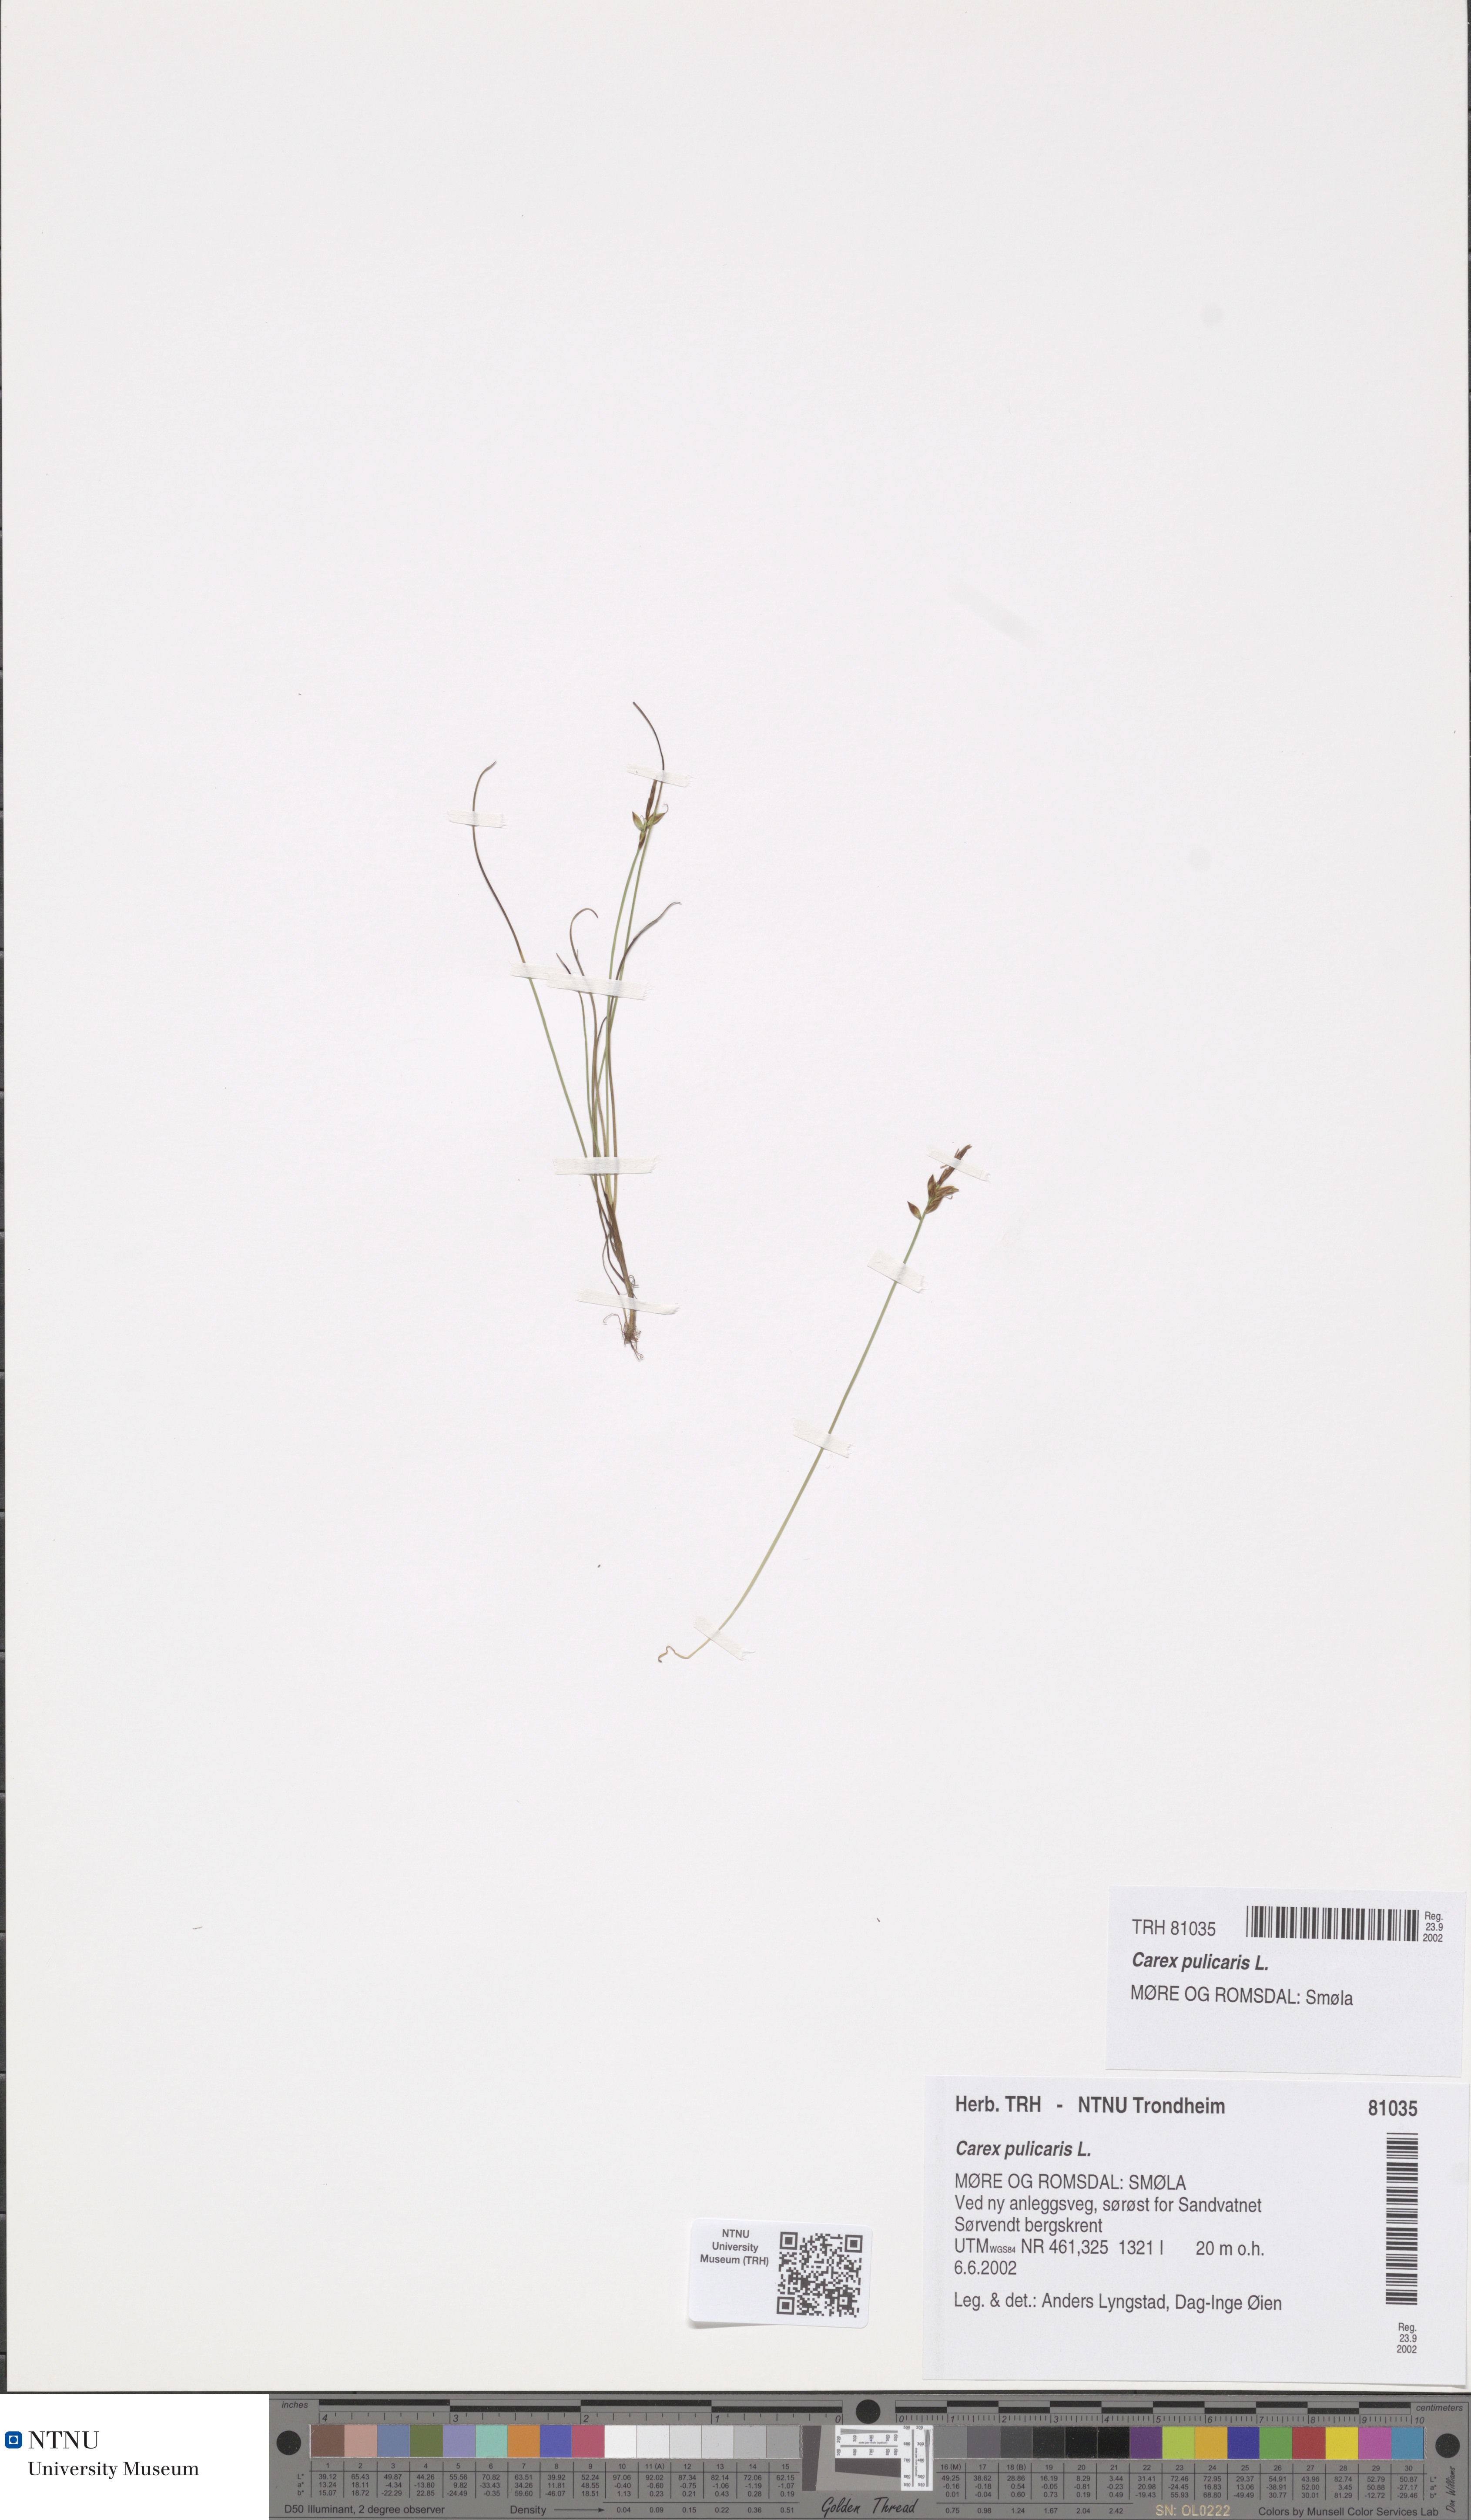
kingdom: Plantae
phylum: Tracheophyta
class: Liliopsida
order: Poales
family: Cyperaceae
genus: Carex
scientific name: Carex pulicaris
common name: Flea sedge
